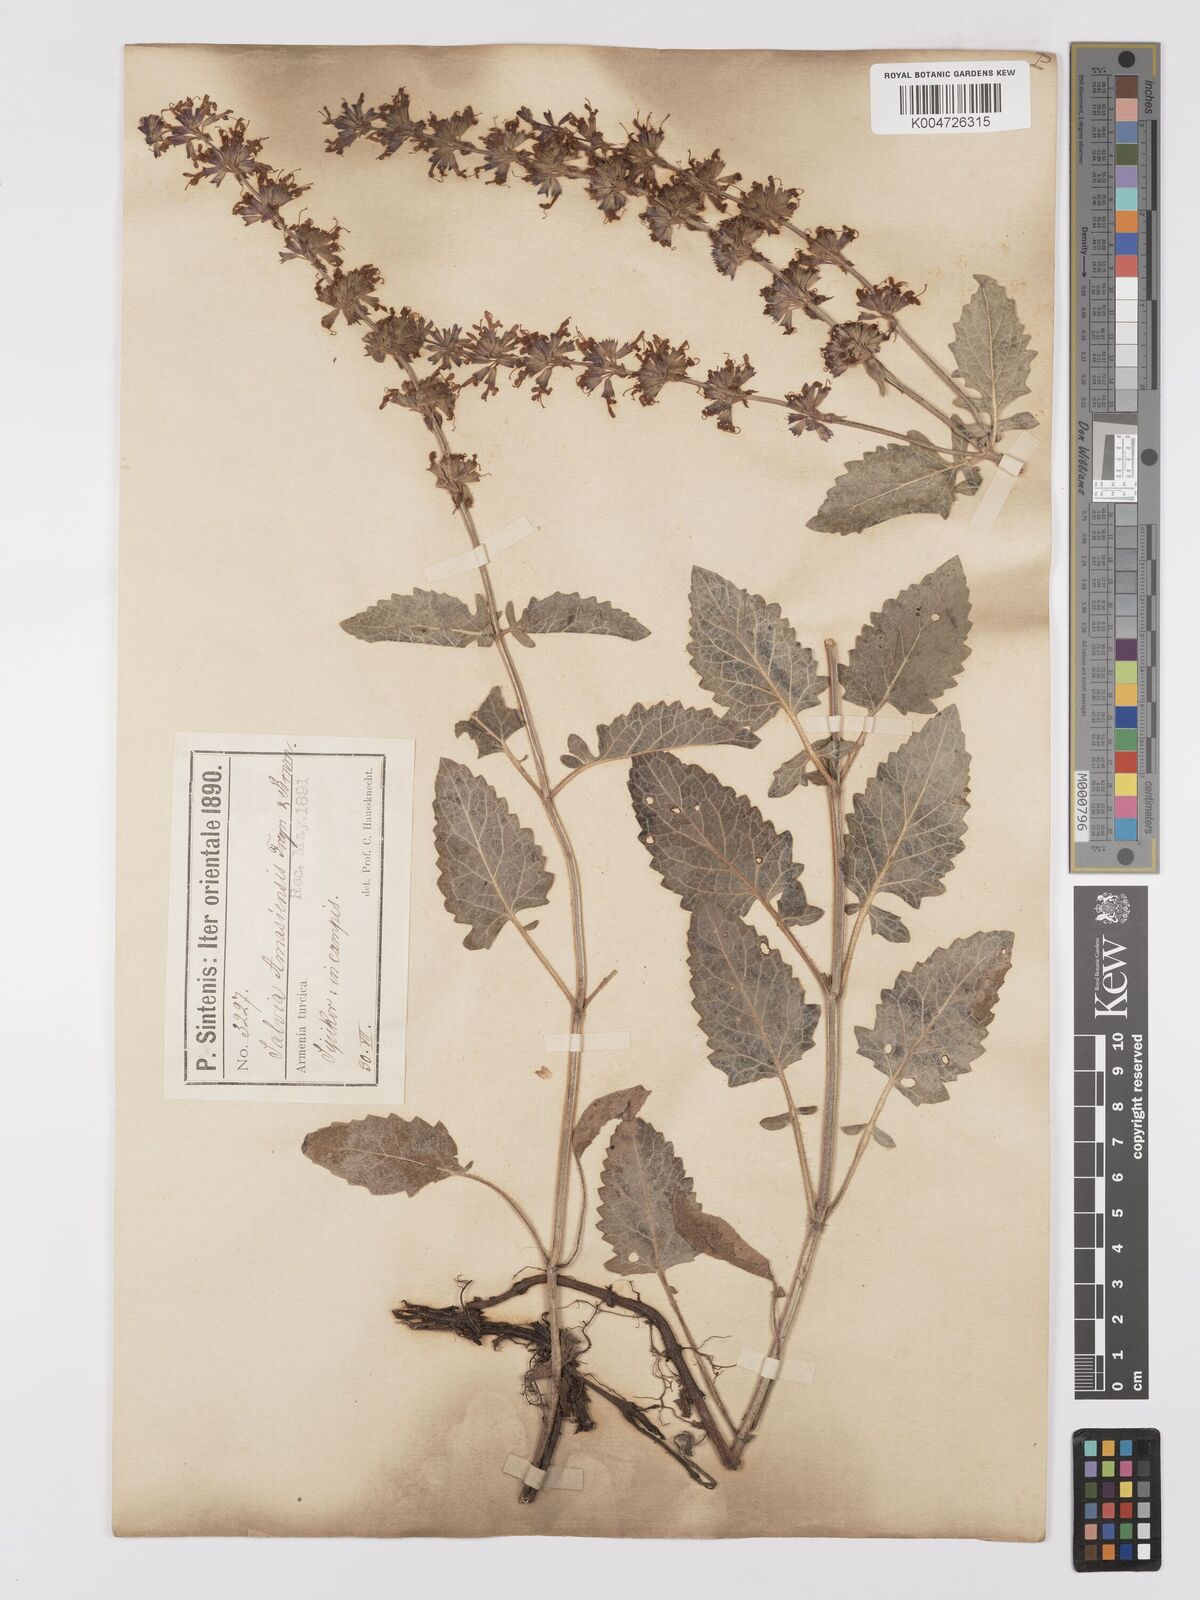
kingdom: Plantae
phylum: Tracheophyta
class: Magnoliopsida
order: Lamiales
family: Lamiaceae
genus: Salvia
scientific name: Salvia verticillata
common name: Whorled clary
